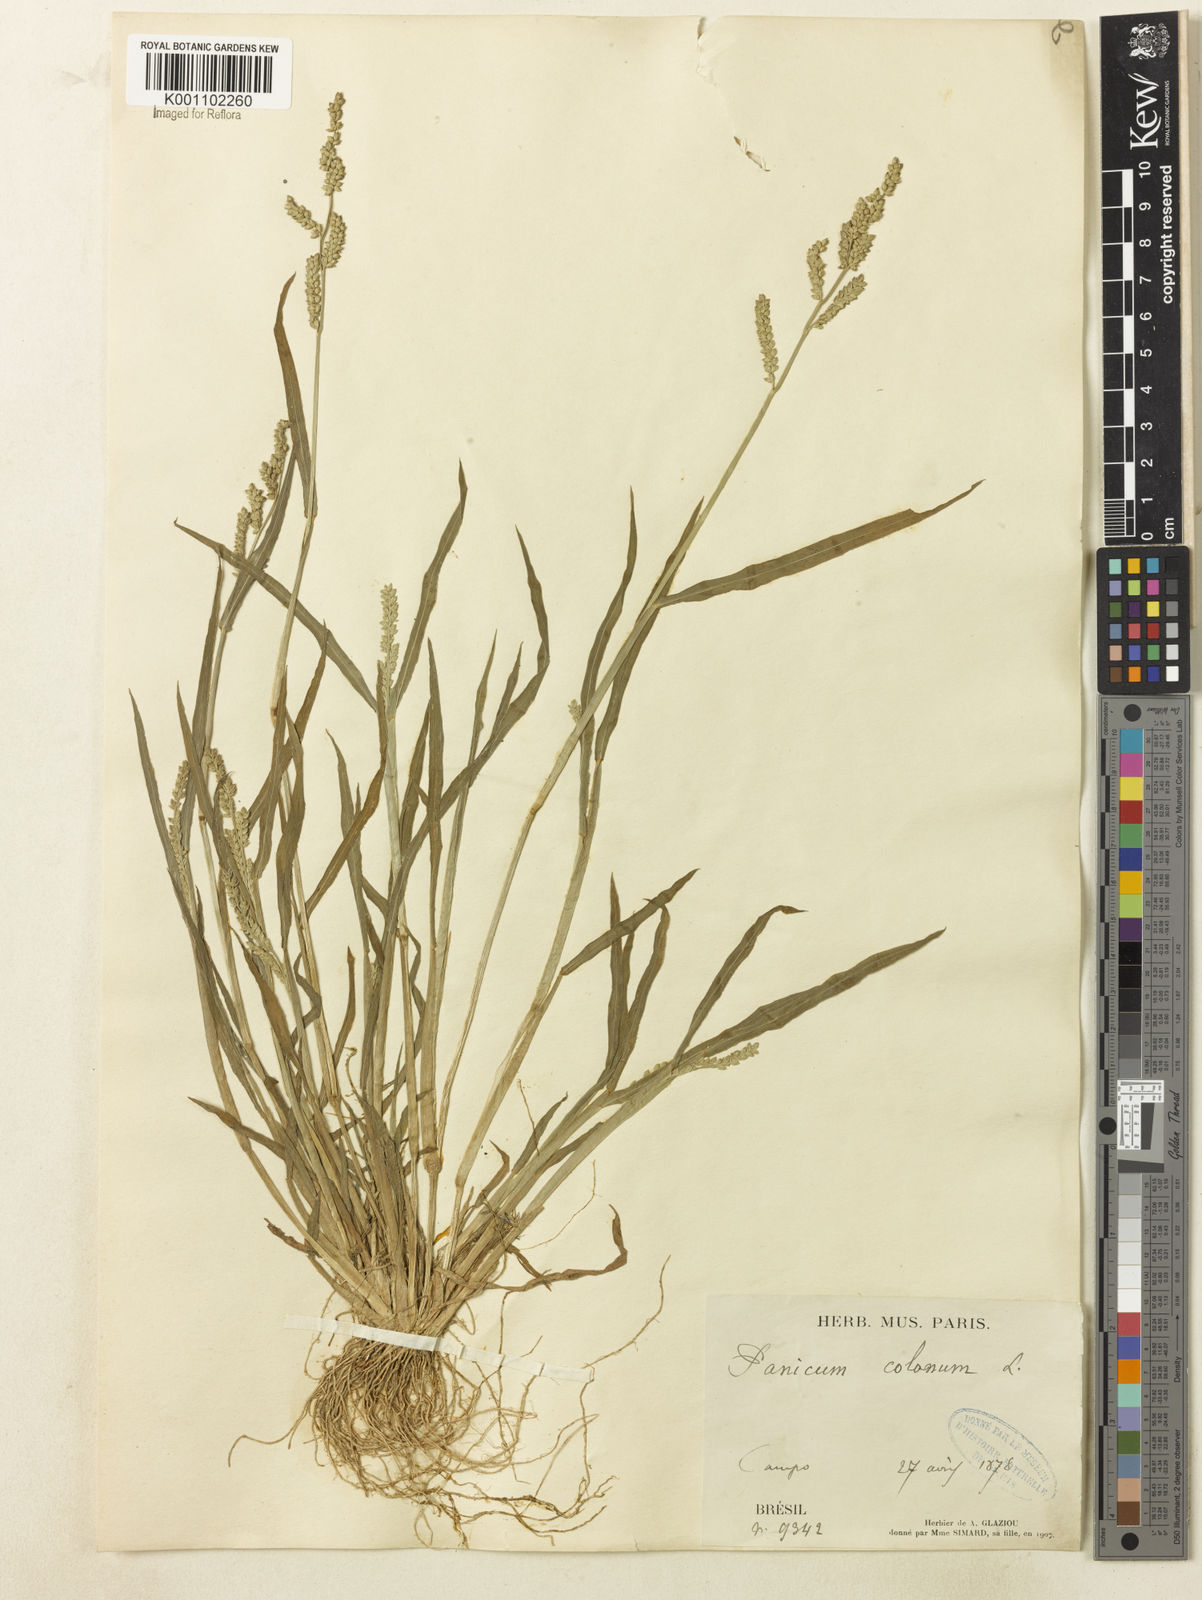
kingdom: Plantae
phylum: Tracheophyta
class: Liliopsida
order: Poales
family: Poaceae
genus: Echinochloa
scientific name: Echinochloa colonum
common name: Jungle rice
